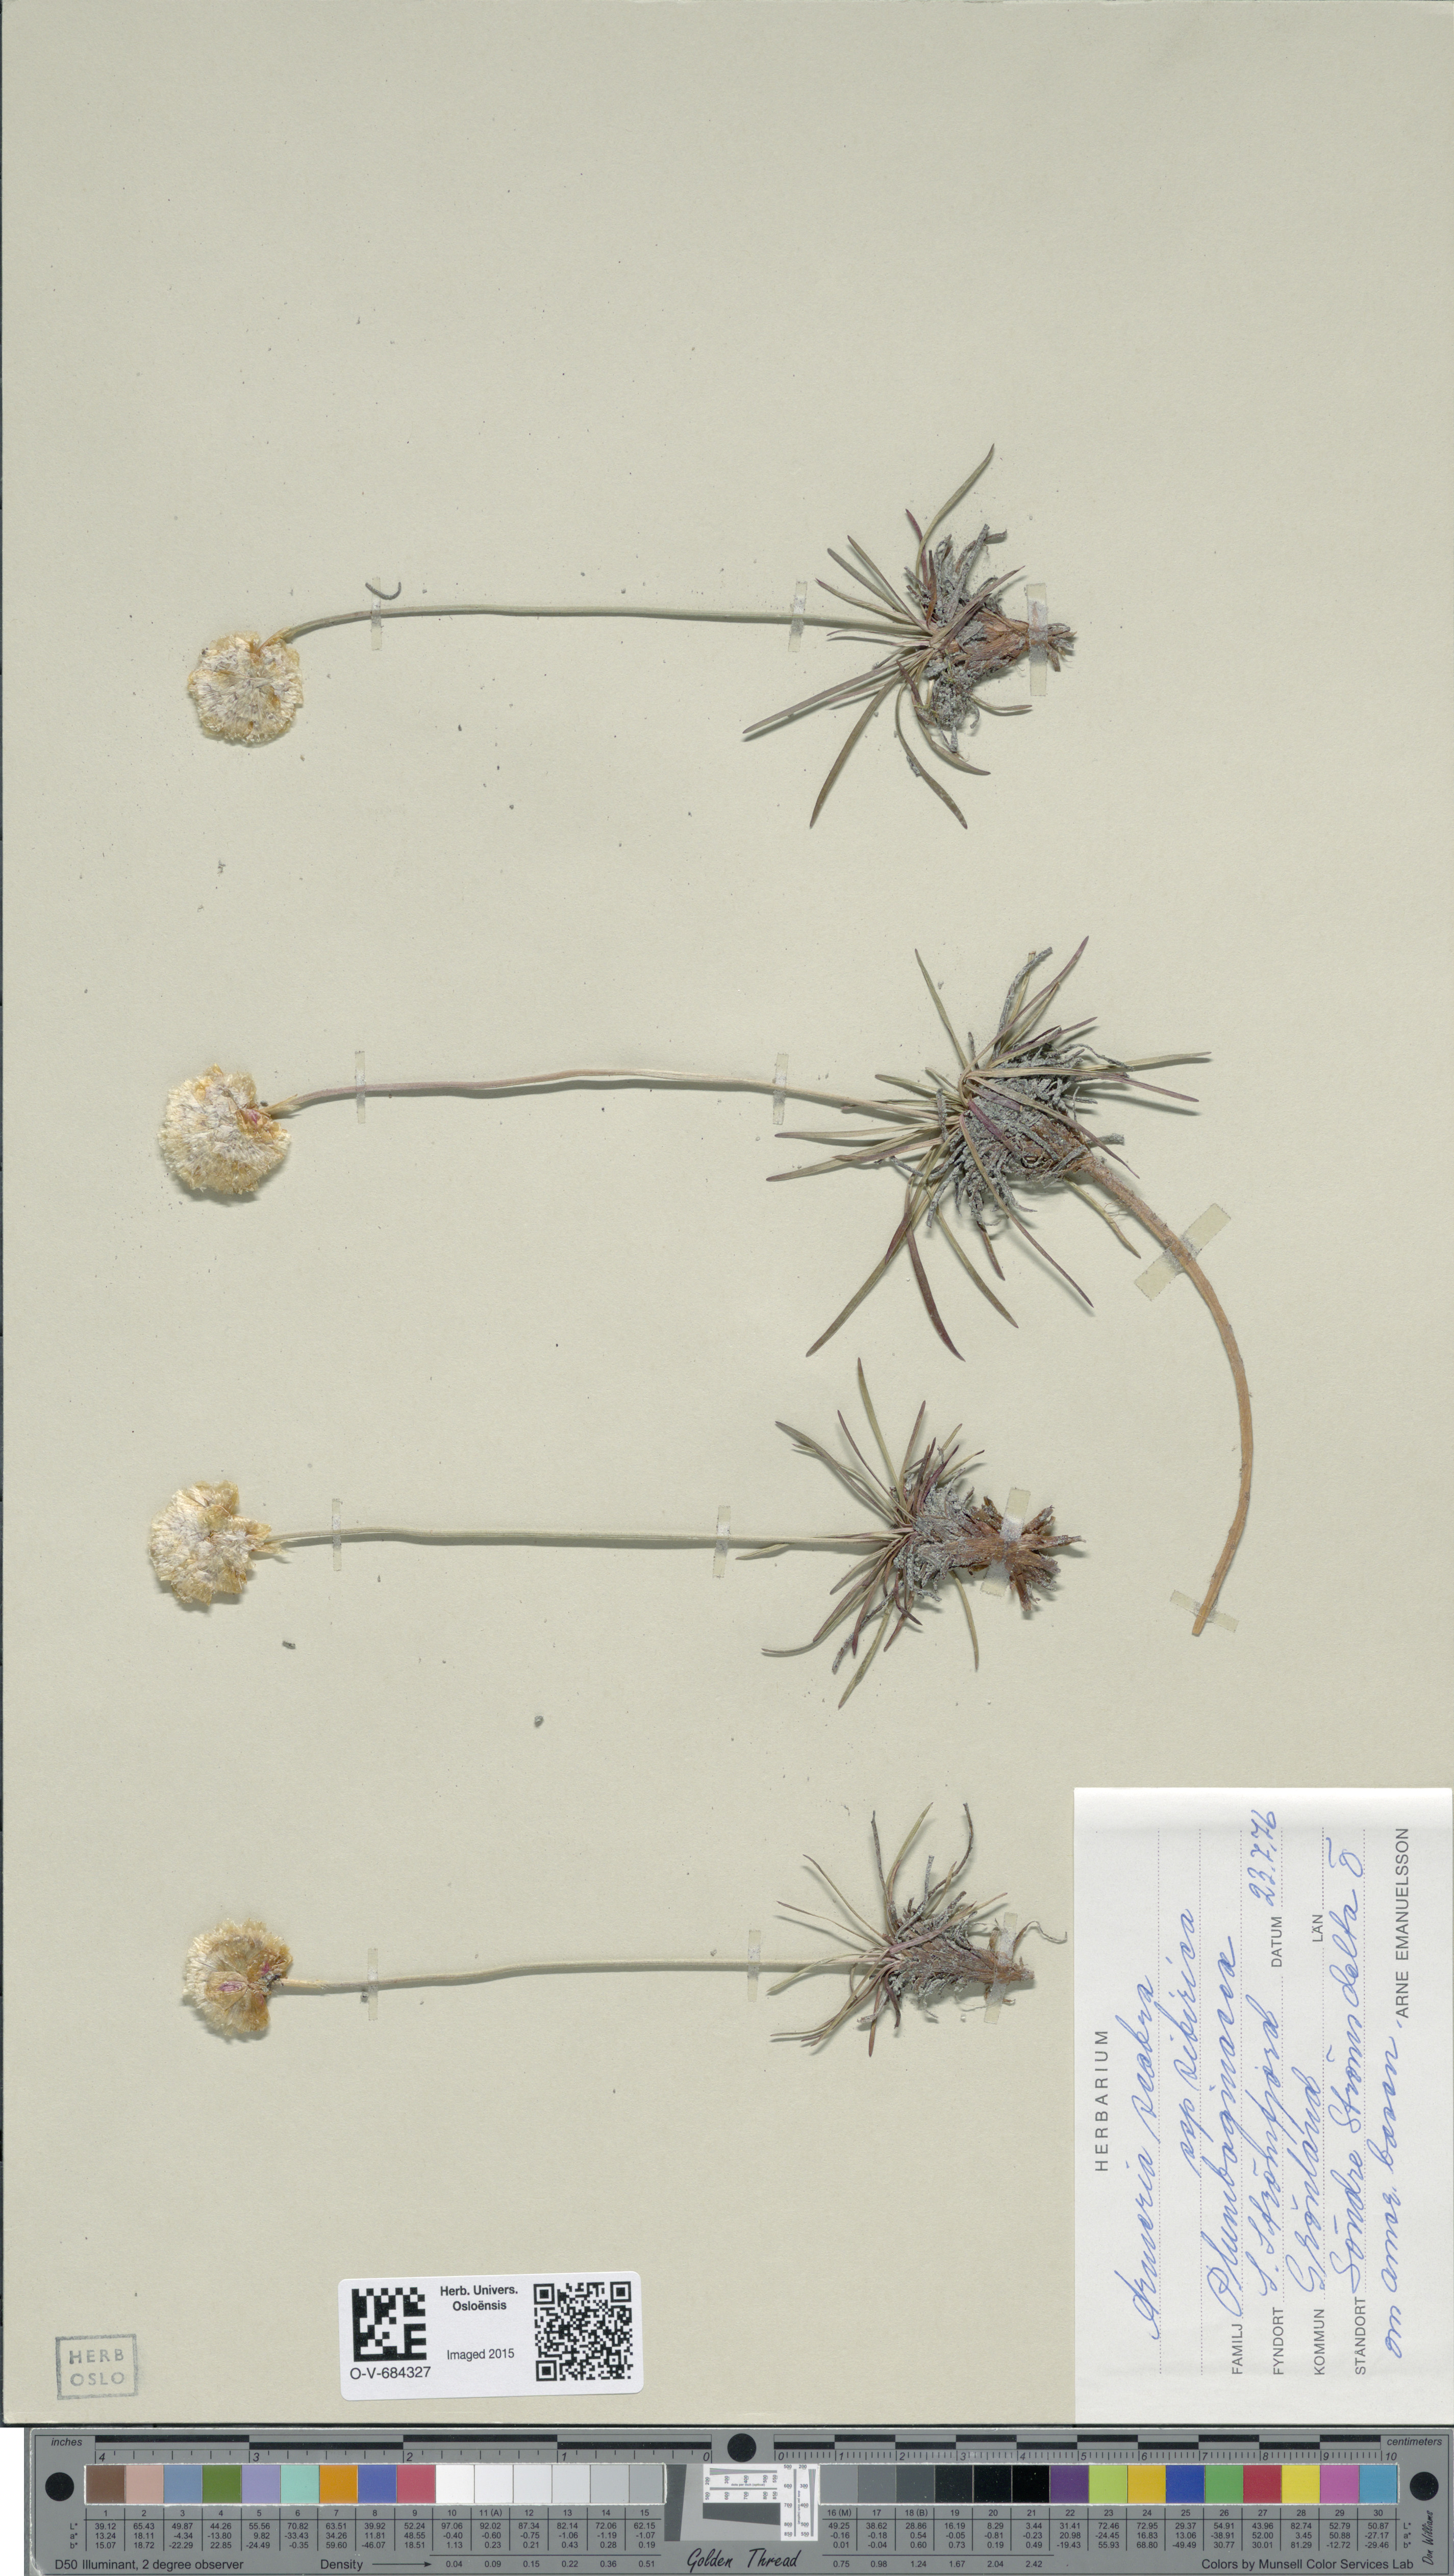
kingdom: Plantae
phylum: Tracheophyta
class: Magnoliopsida
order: Caryophyllales
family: Plumbaginaceae
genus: Armeria
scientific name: Armeria maritima
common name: Thrift
